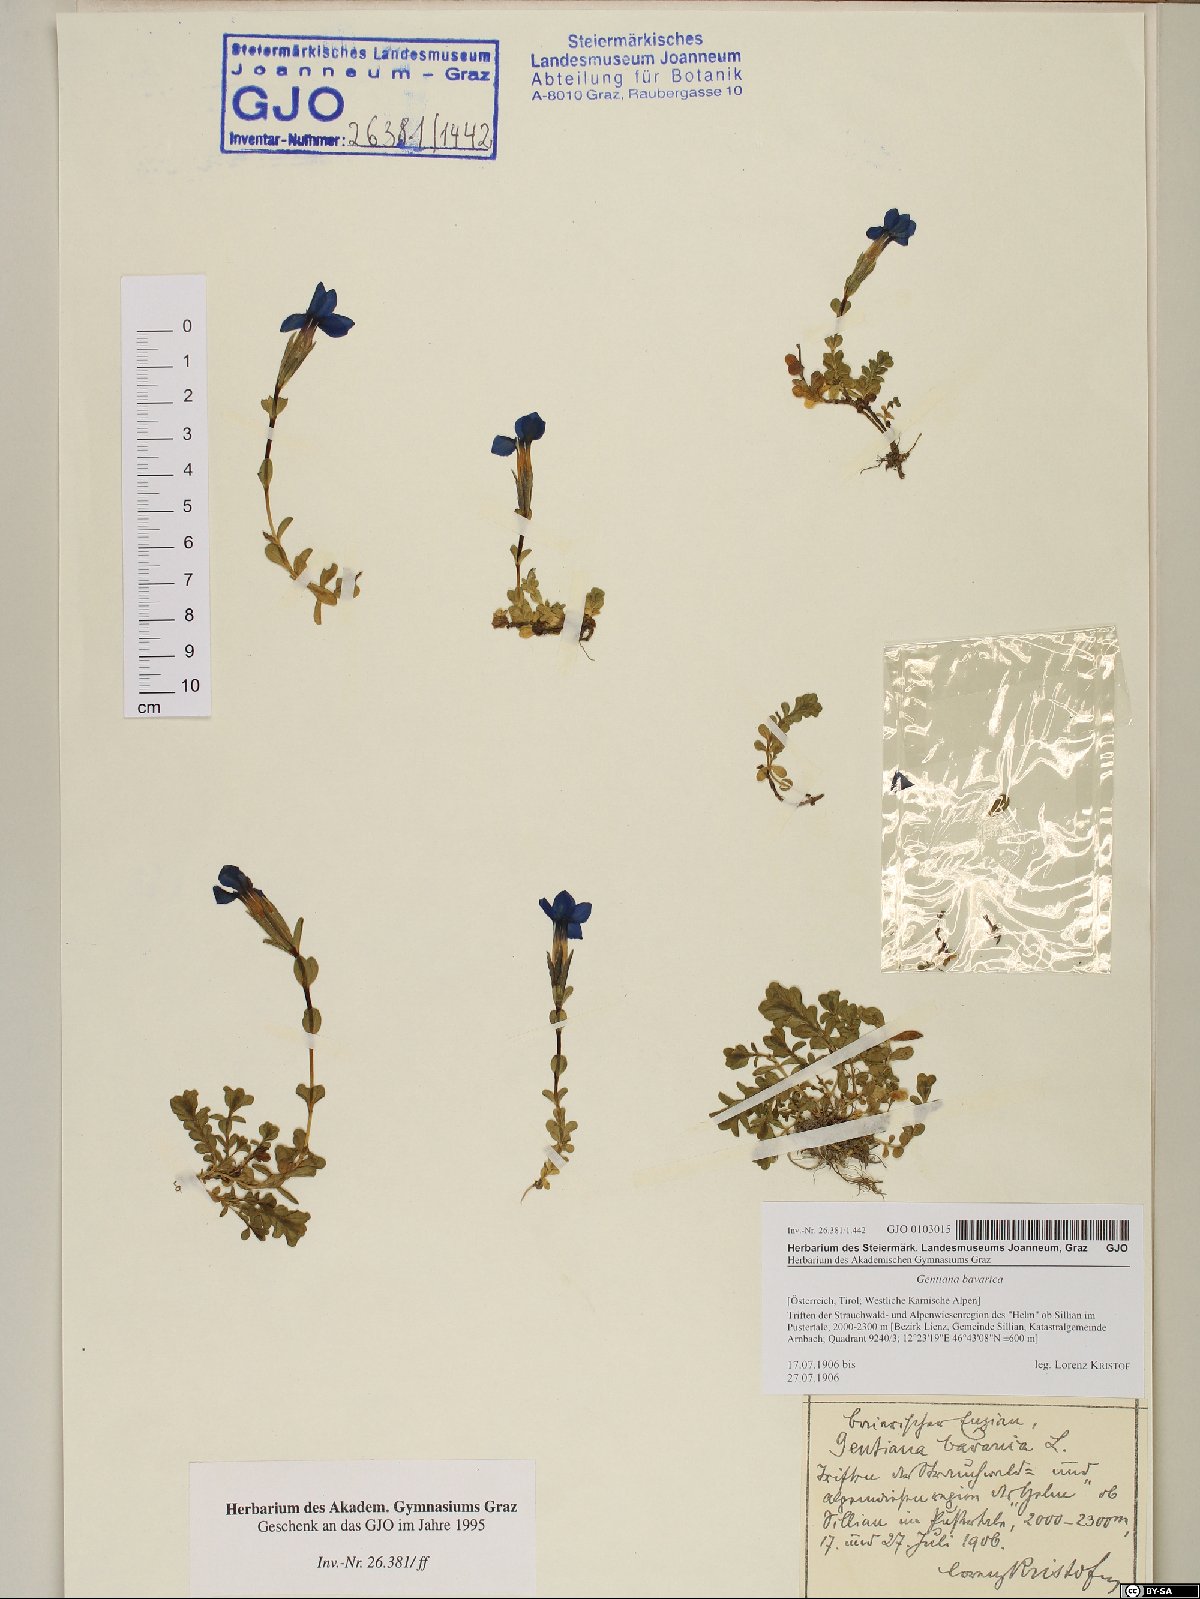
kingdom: Plantae
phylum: Tracheophyta
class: Magnoliopsida
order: Gentianales
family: Gentianaceae
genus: Gentiana
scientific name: Gentiana bavarica
